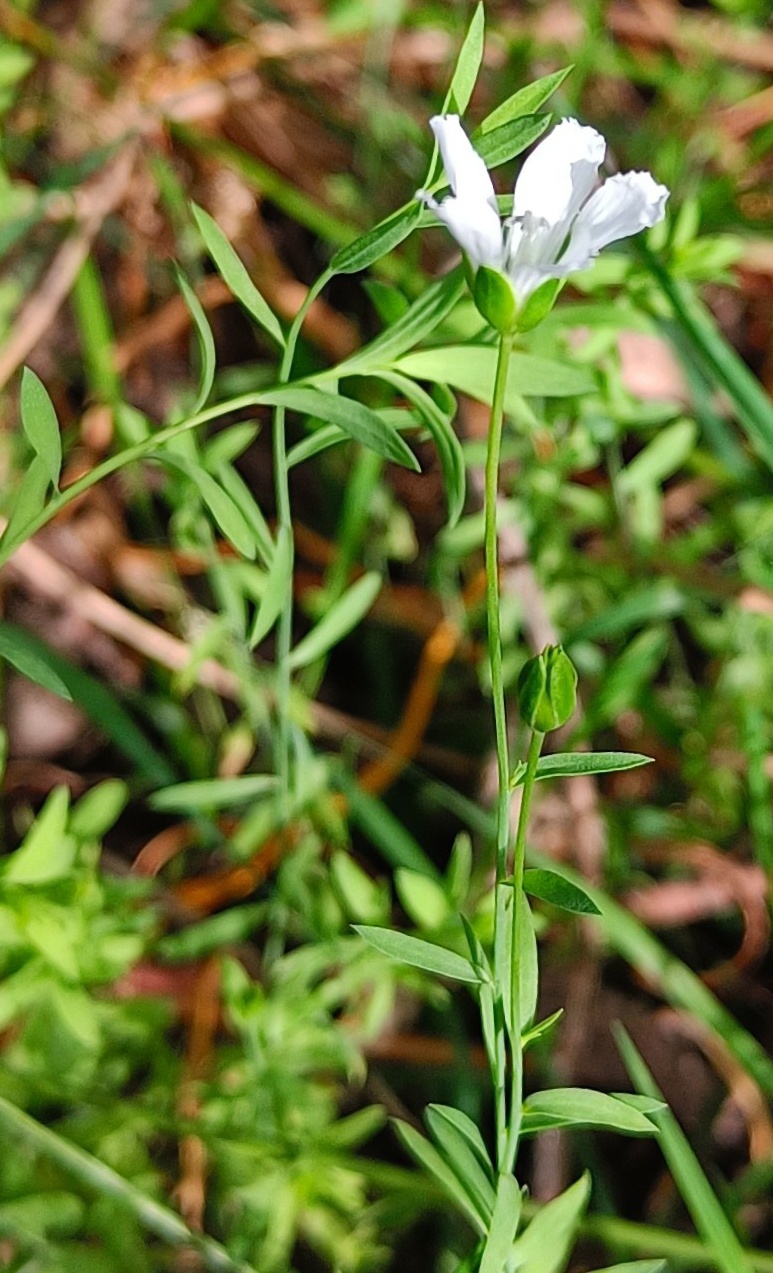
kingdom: Plantae
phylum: Tracheophyta
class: Magnoliopsida
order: Malpighiales
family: Linaceae
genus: Linum
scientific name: Linum
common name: Hørslægten
